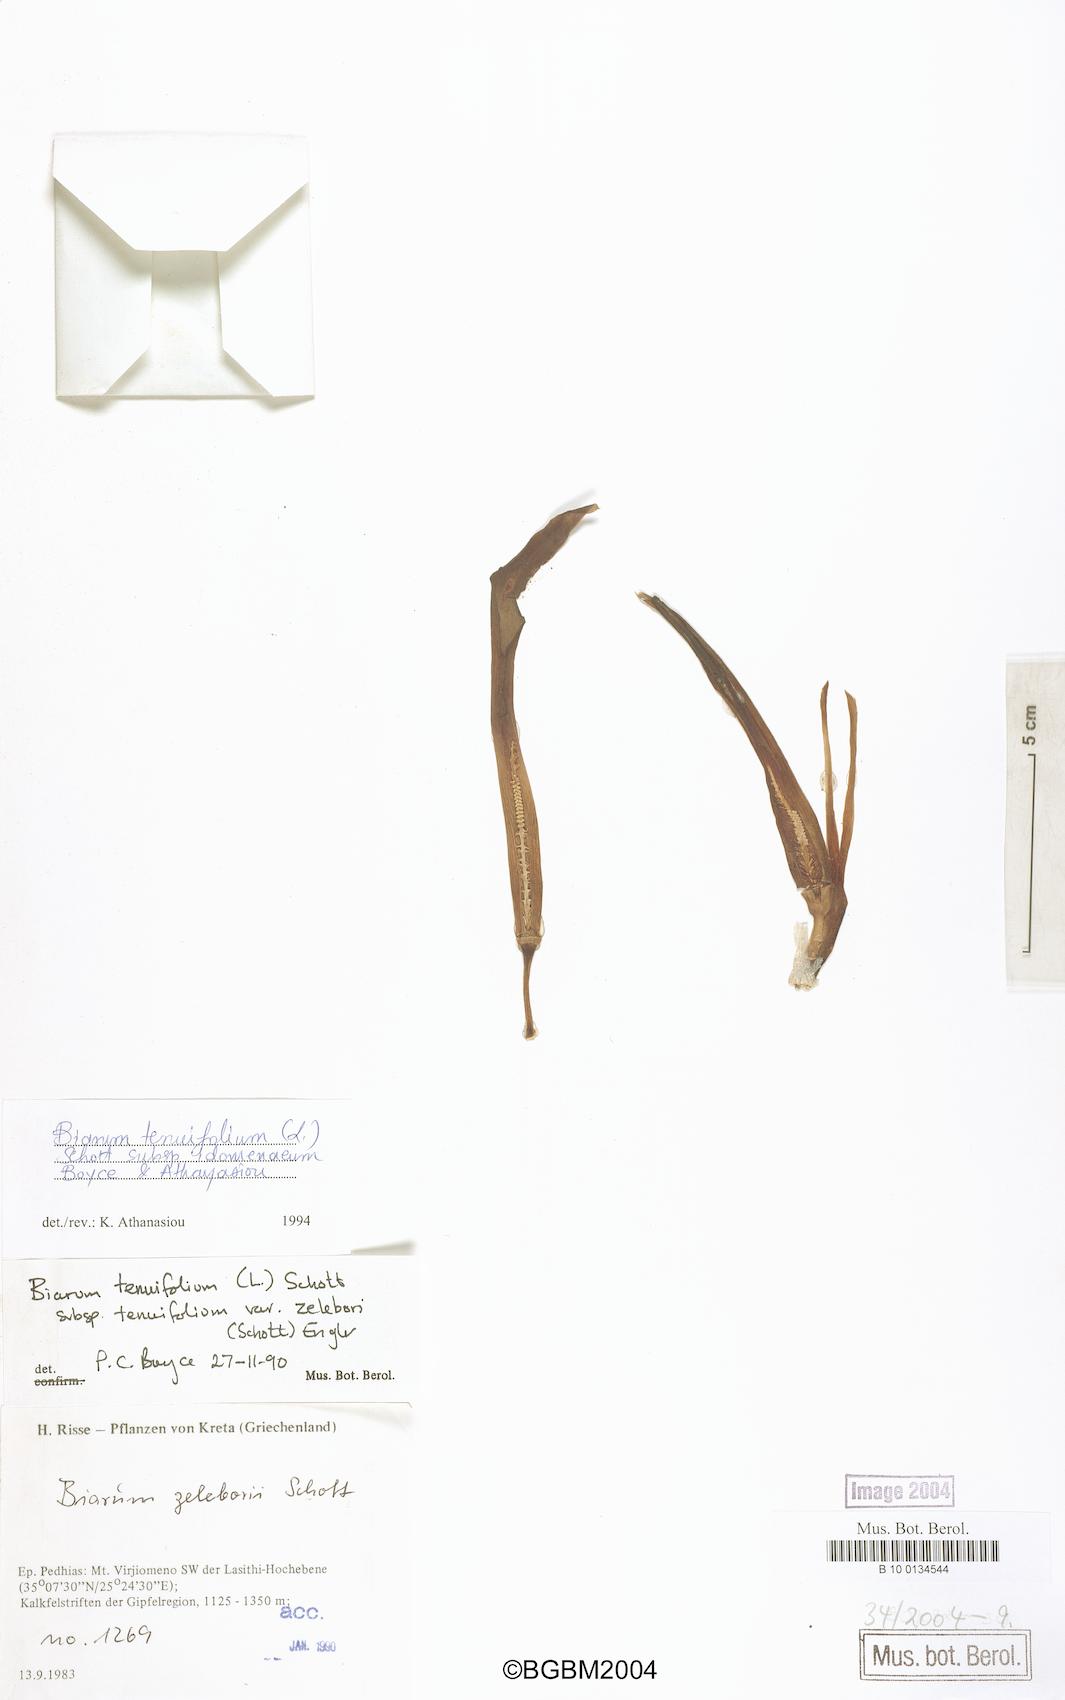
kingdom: Plantae
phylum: Tracheophyta
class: Liliopsida
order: Alismatales
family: Araceae
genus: Biarum
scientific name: Biarum tenuifolium
